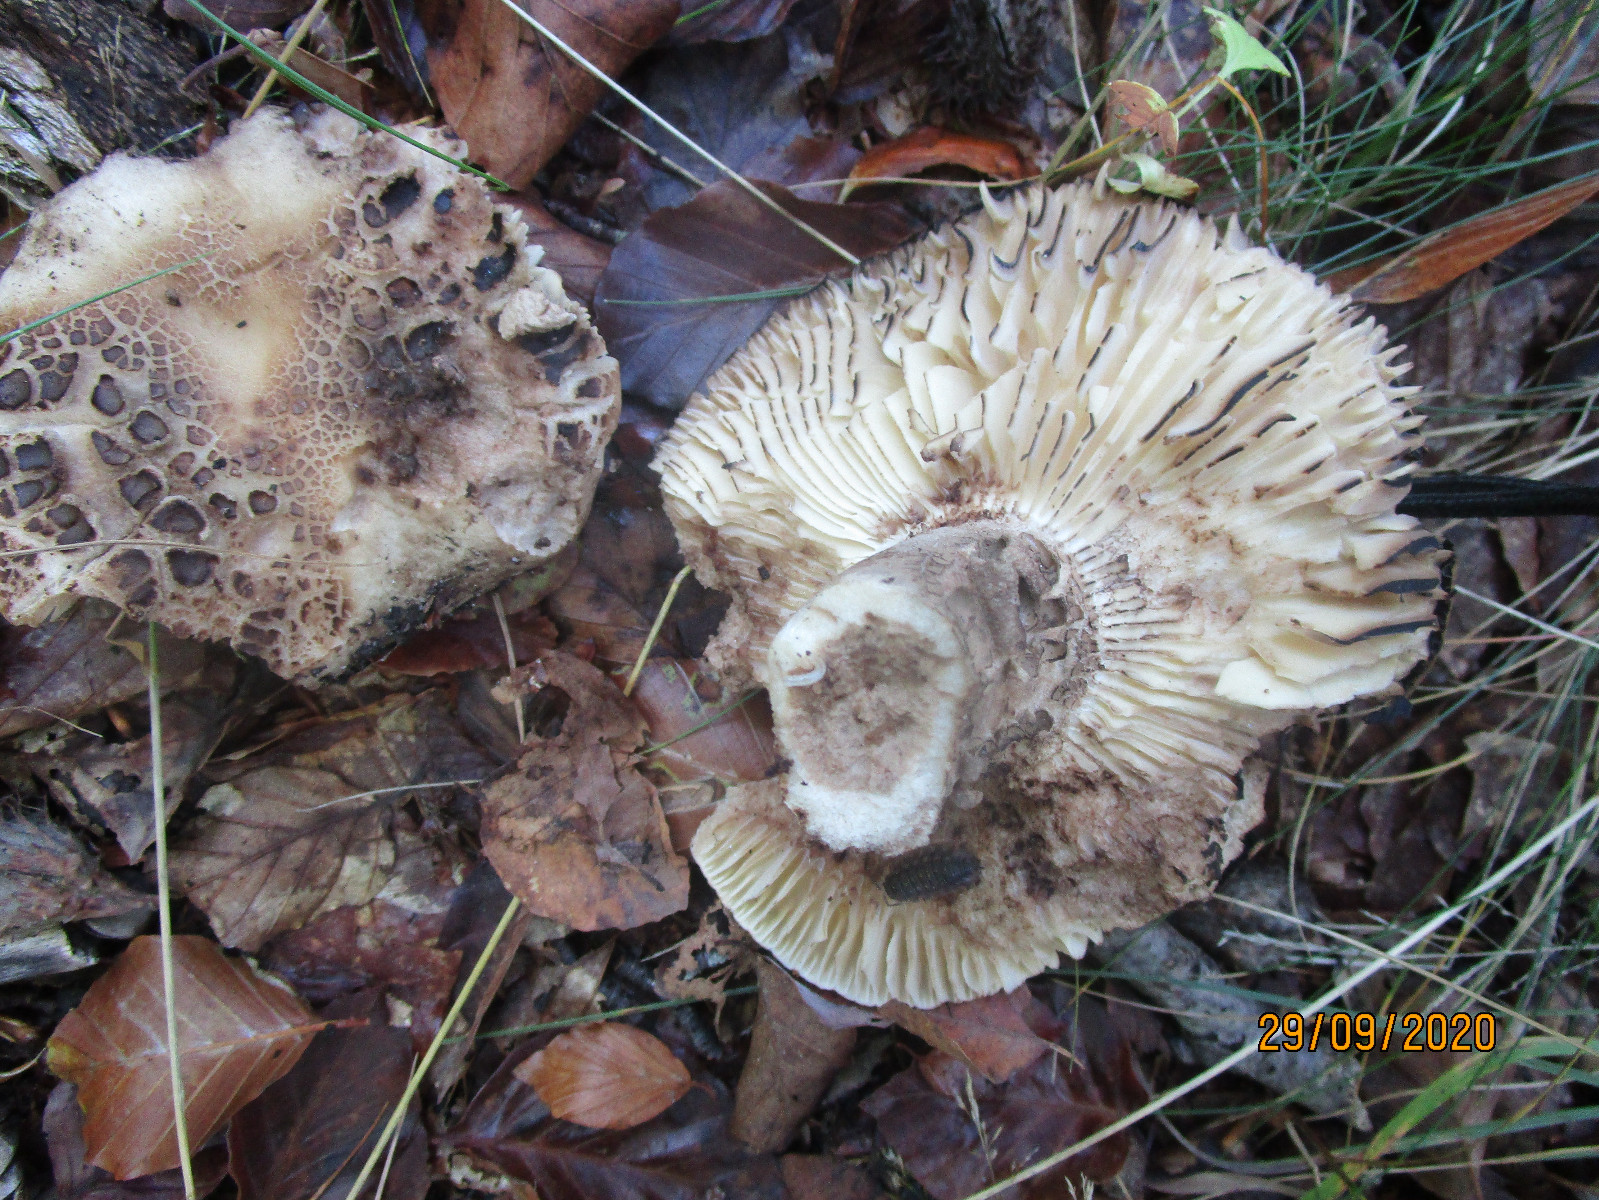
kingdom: Fungi
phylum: Basidiomycota
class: Agaricomycetes
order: Russulales
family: Russulaceae
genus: Russula
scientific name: Russula adusta
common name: sværtende skørhat
